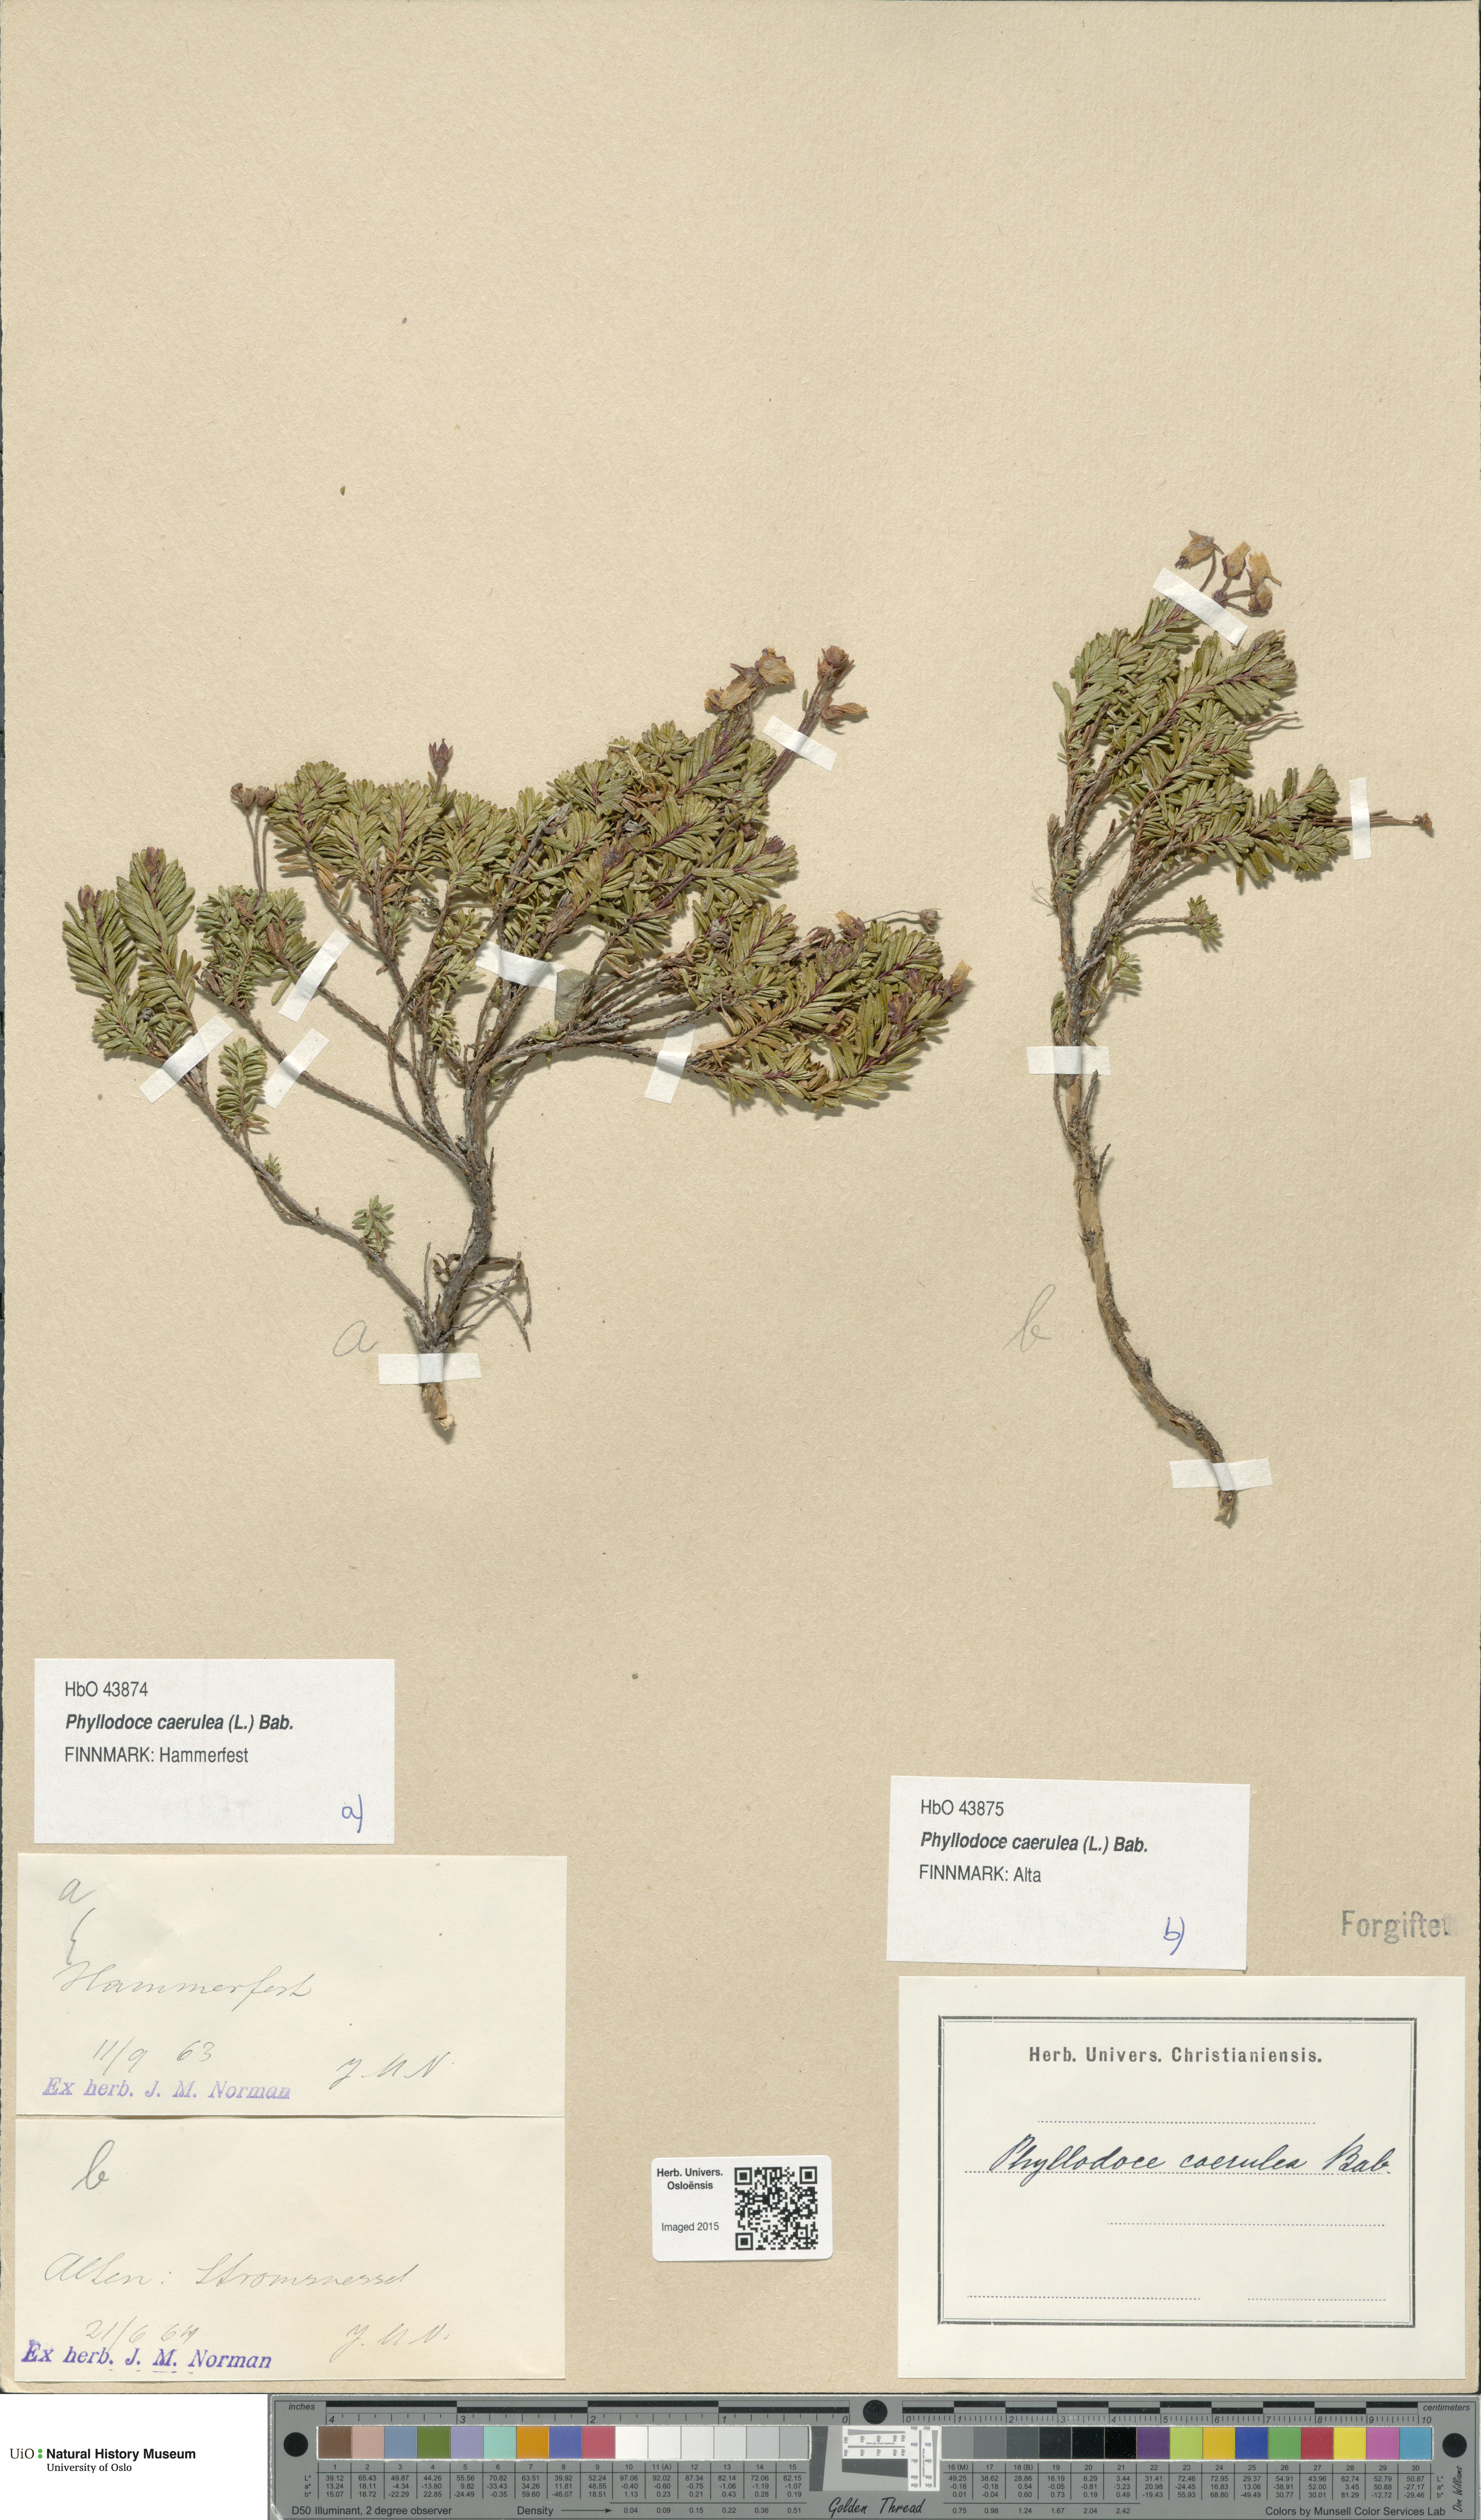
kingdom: Plantae
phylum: Tracheophyta
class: Magnoliopsida
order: Ericales
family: Ericaceae
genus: Phyllodoce
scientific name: Phyllodoce caerulea
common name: Blue heath
